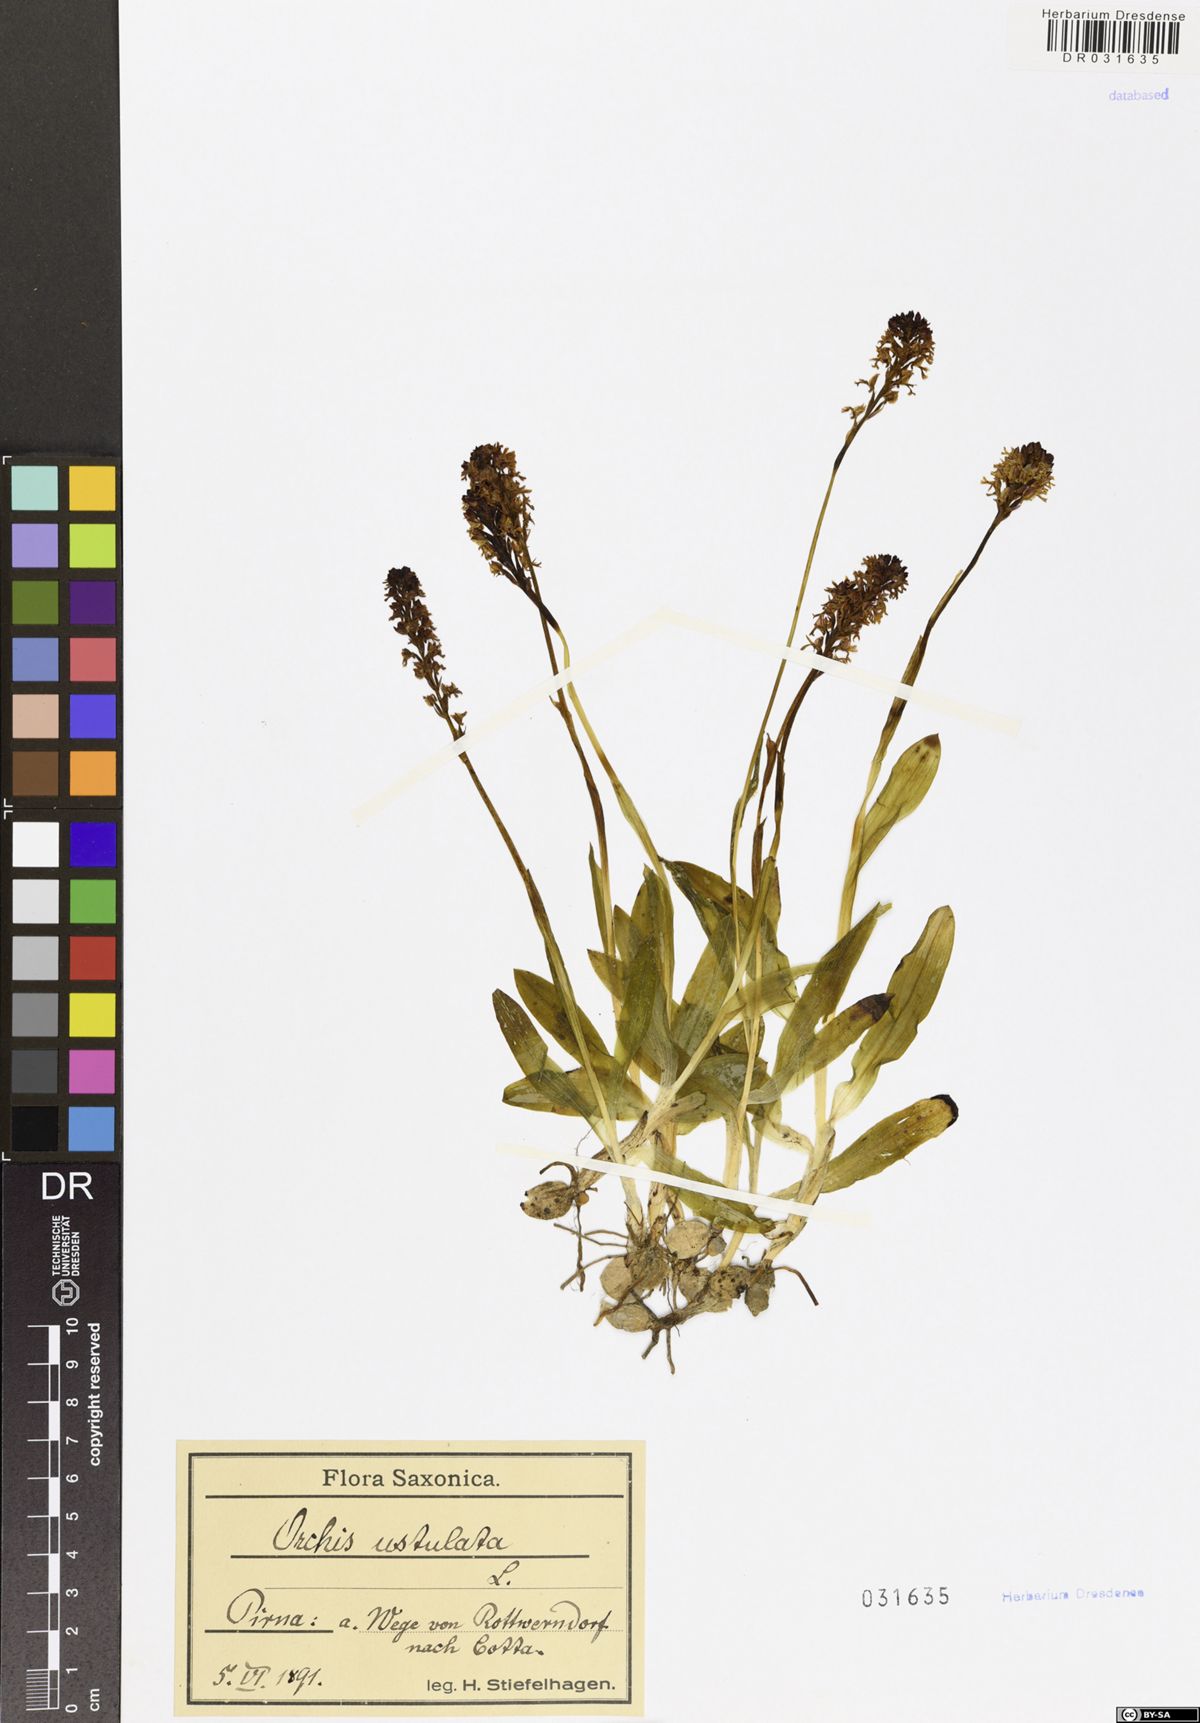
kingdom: Plantae
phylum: Tracheophyta
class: Liliopsida
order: Asparagales
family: Orchidaceae
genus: Neotinea
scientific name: Neotinea ustulata
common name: Burnt orchid
